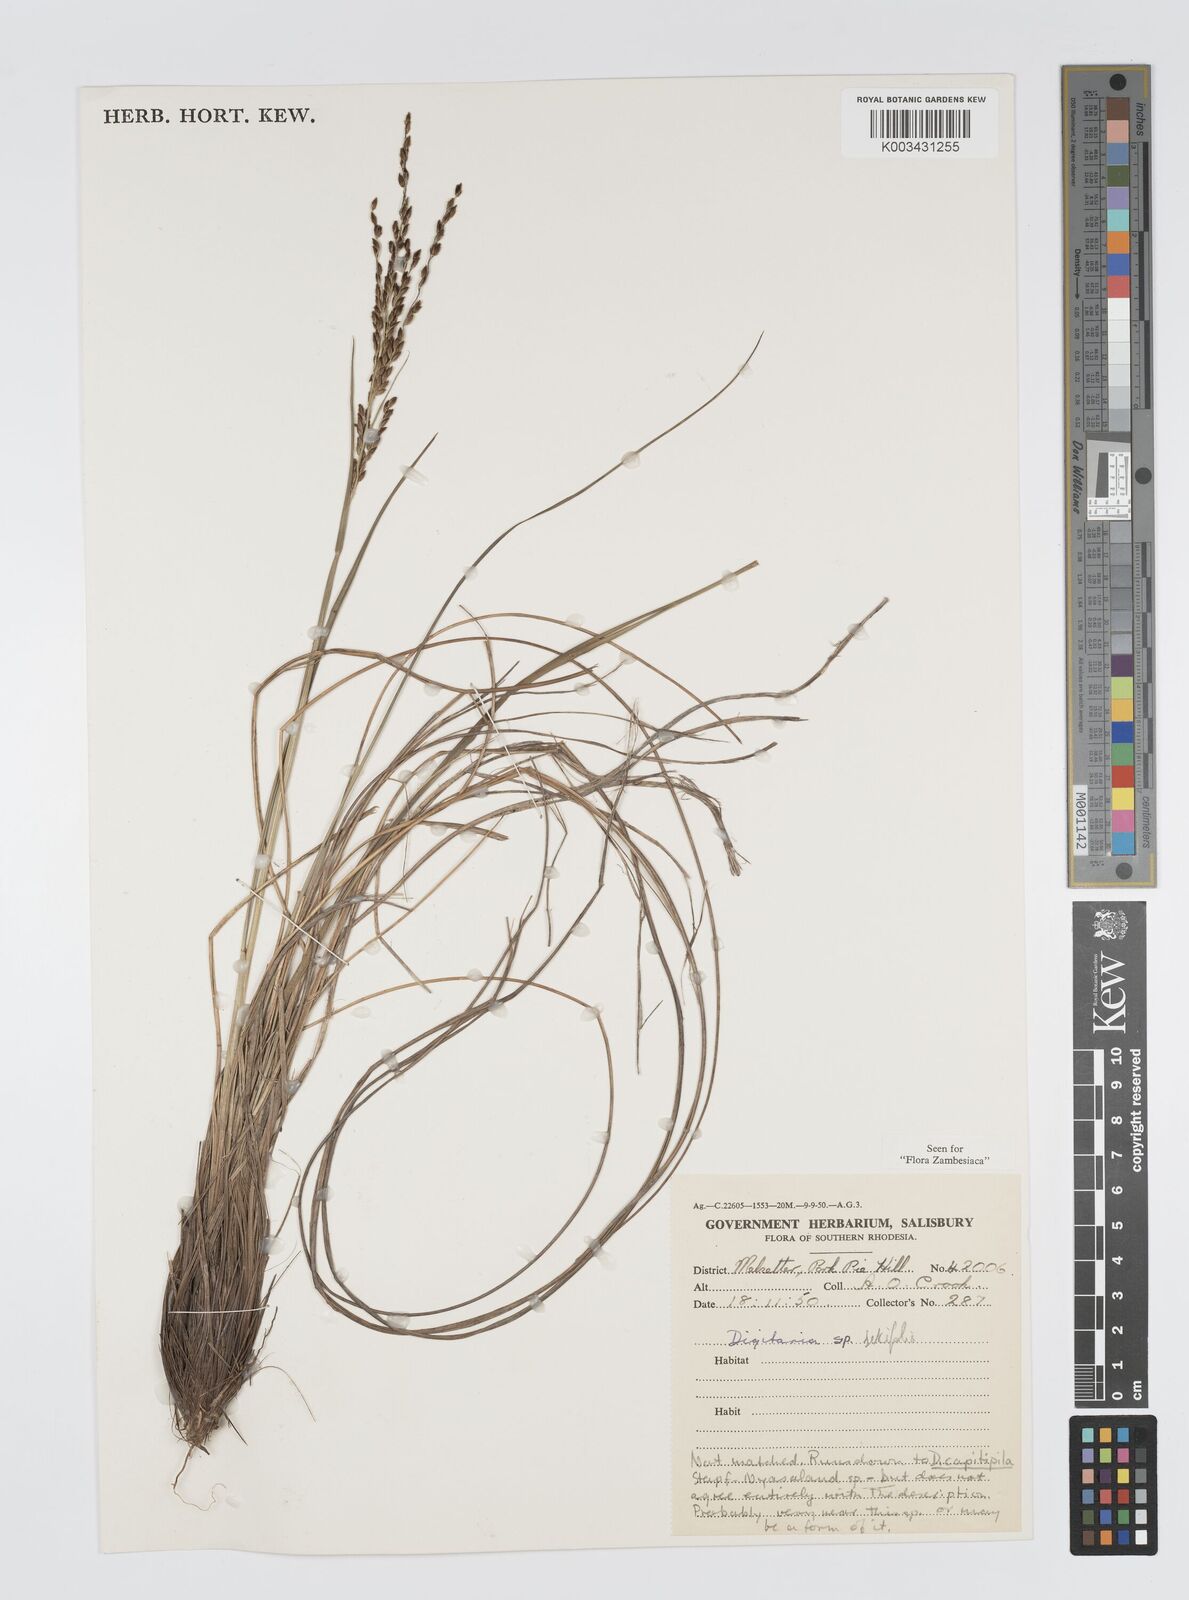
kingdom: Plantae
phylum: Tracheophyta
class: Liliopsida
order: Poales
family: Poaceae
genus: Digitaria
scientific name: Digitaria setifolia
